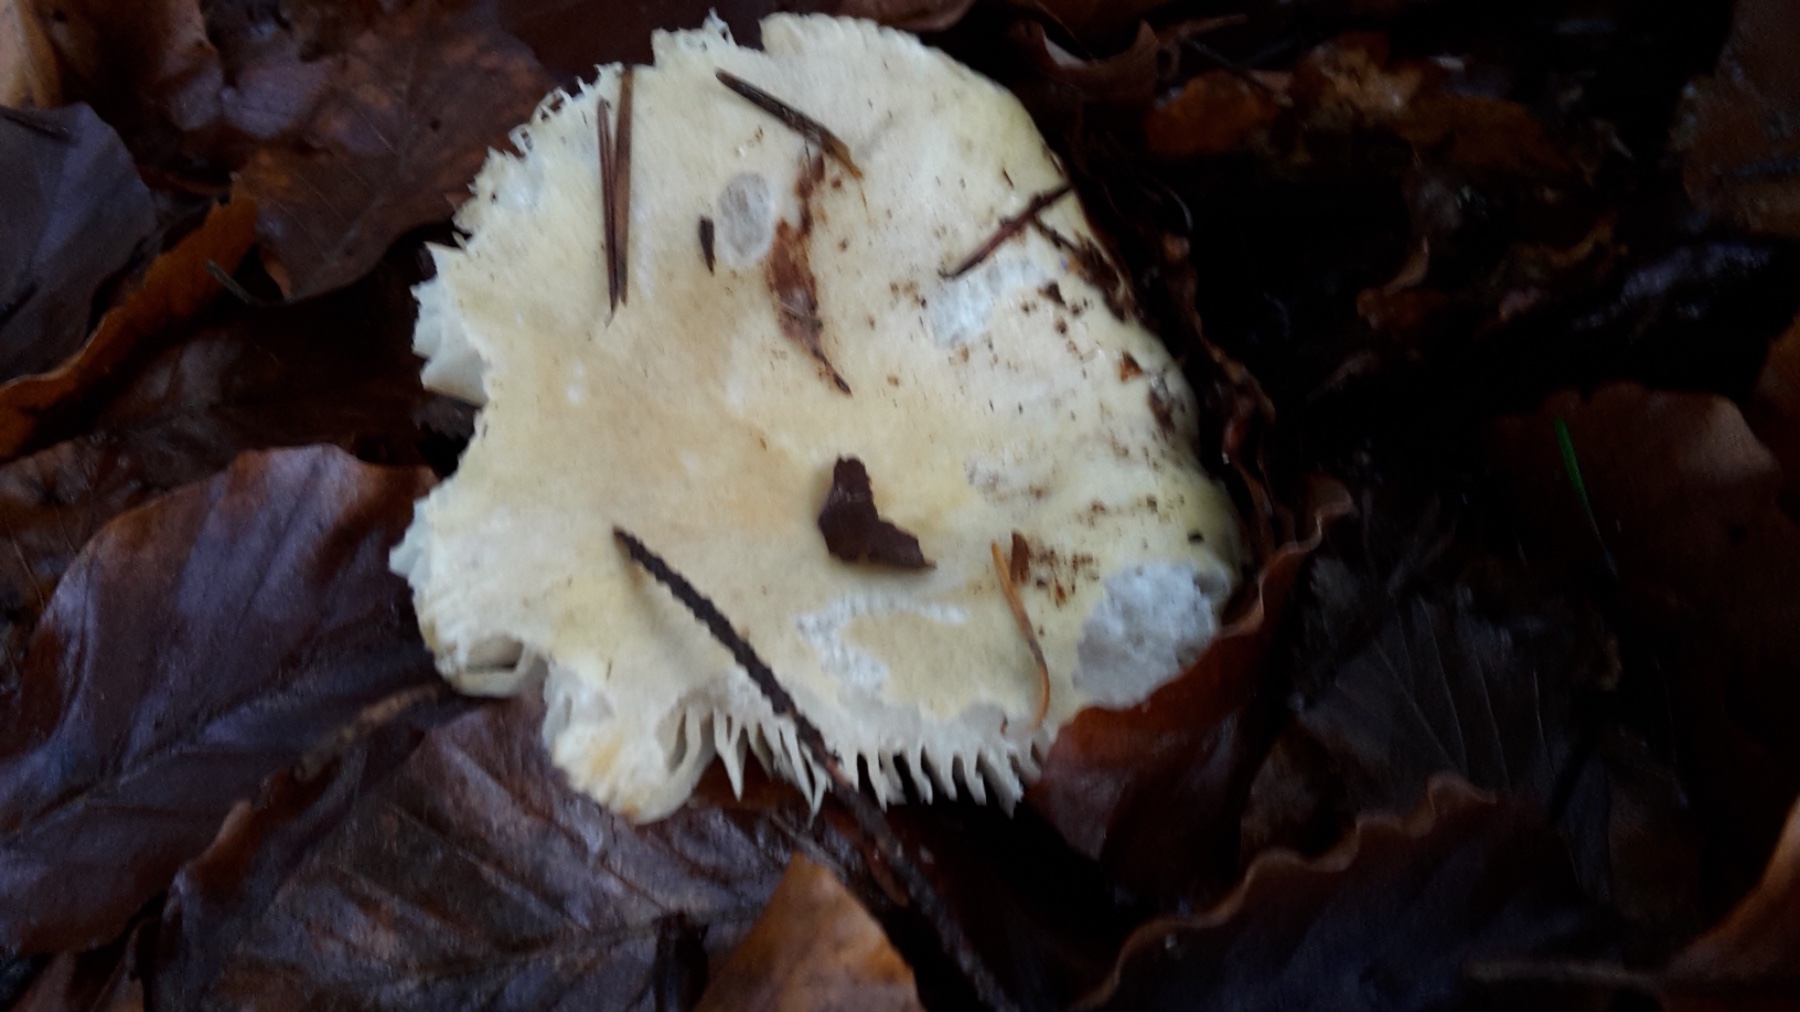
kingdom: Fungi
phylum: Basidiomycota
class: Agaricomycetes
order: Russulales
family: Russulaceae
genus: Russula
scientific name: Russula ochroleuca
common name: okkergul skørhat
